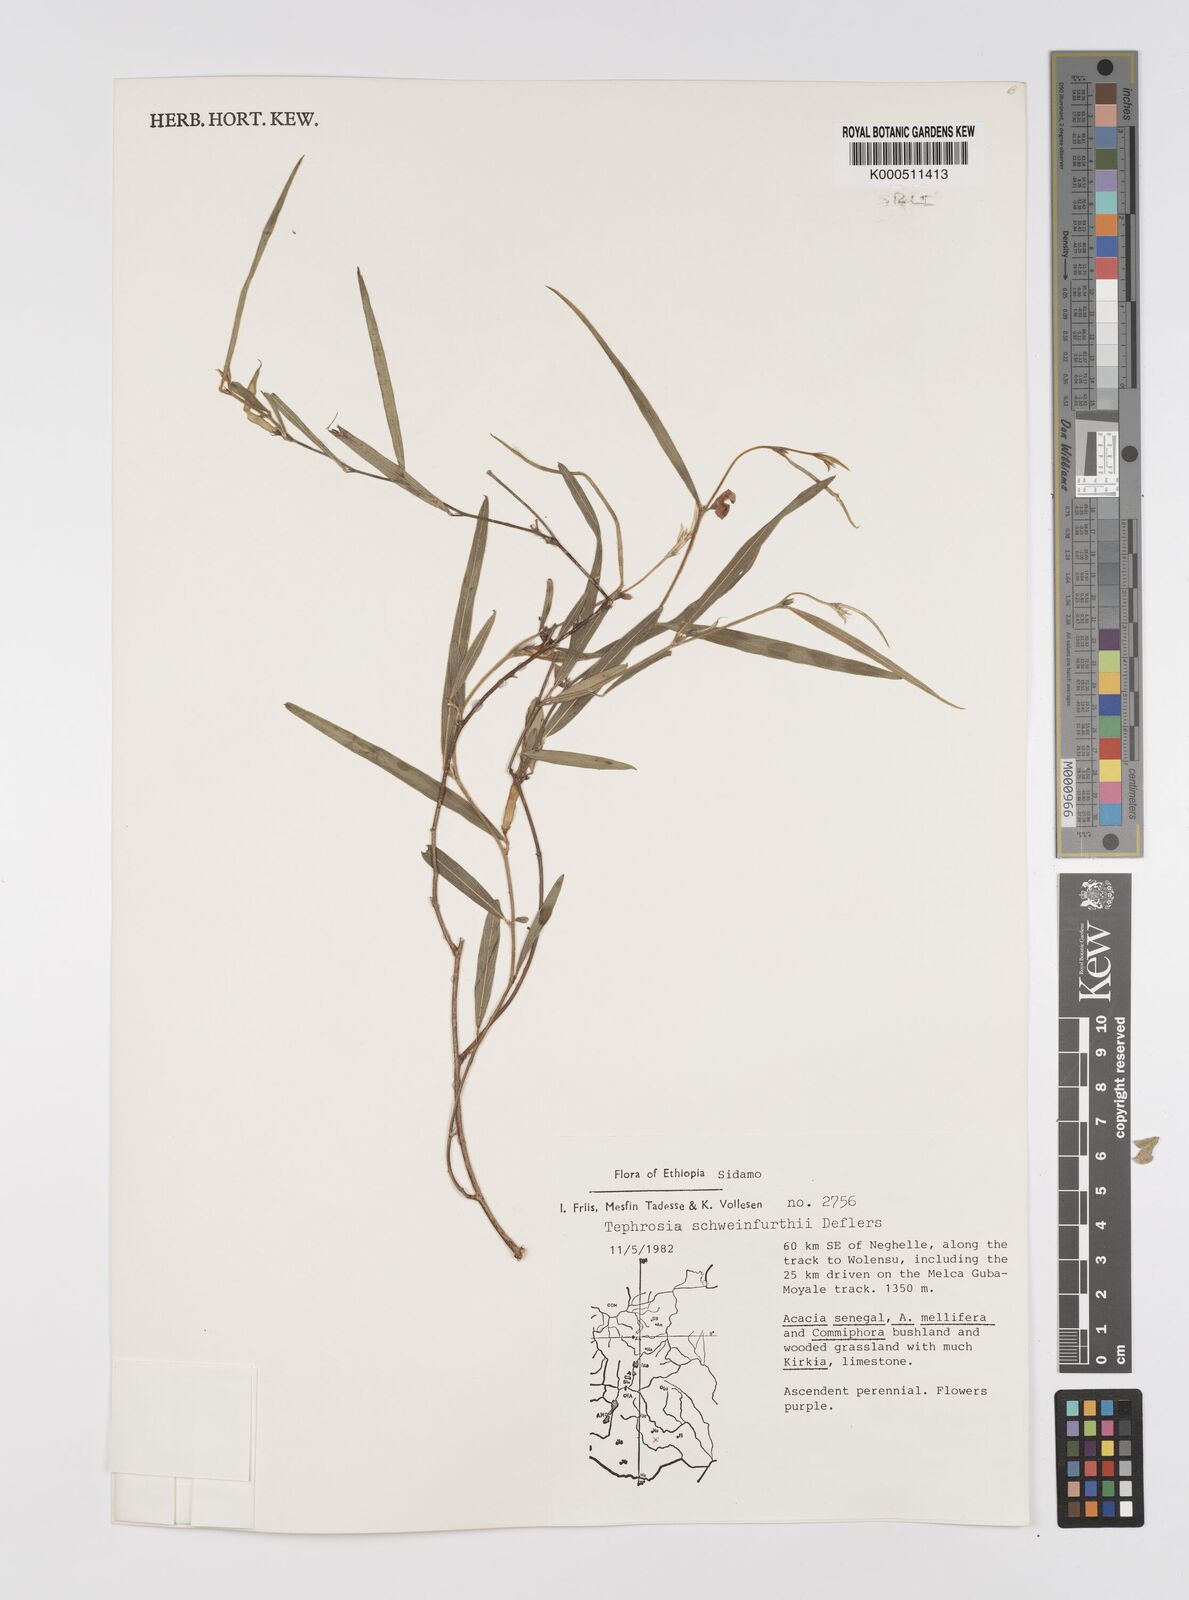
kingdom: Plantae
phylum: Tracheophyta
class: Magnoliopsida
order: Fabales
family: Fabaceae
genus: Tephrosia
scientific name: Tephrosia heterophylla
